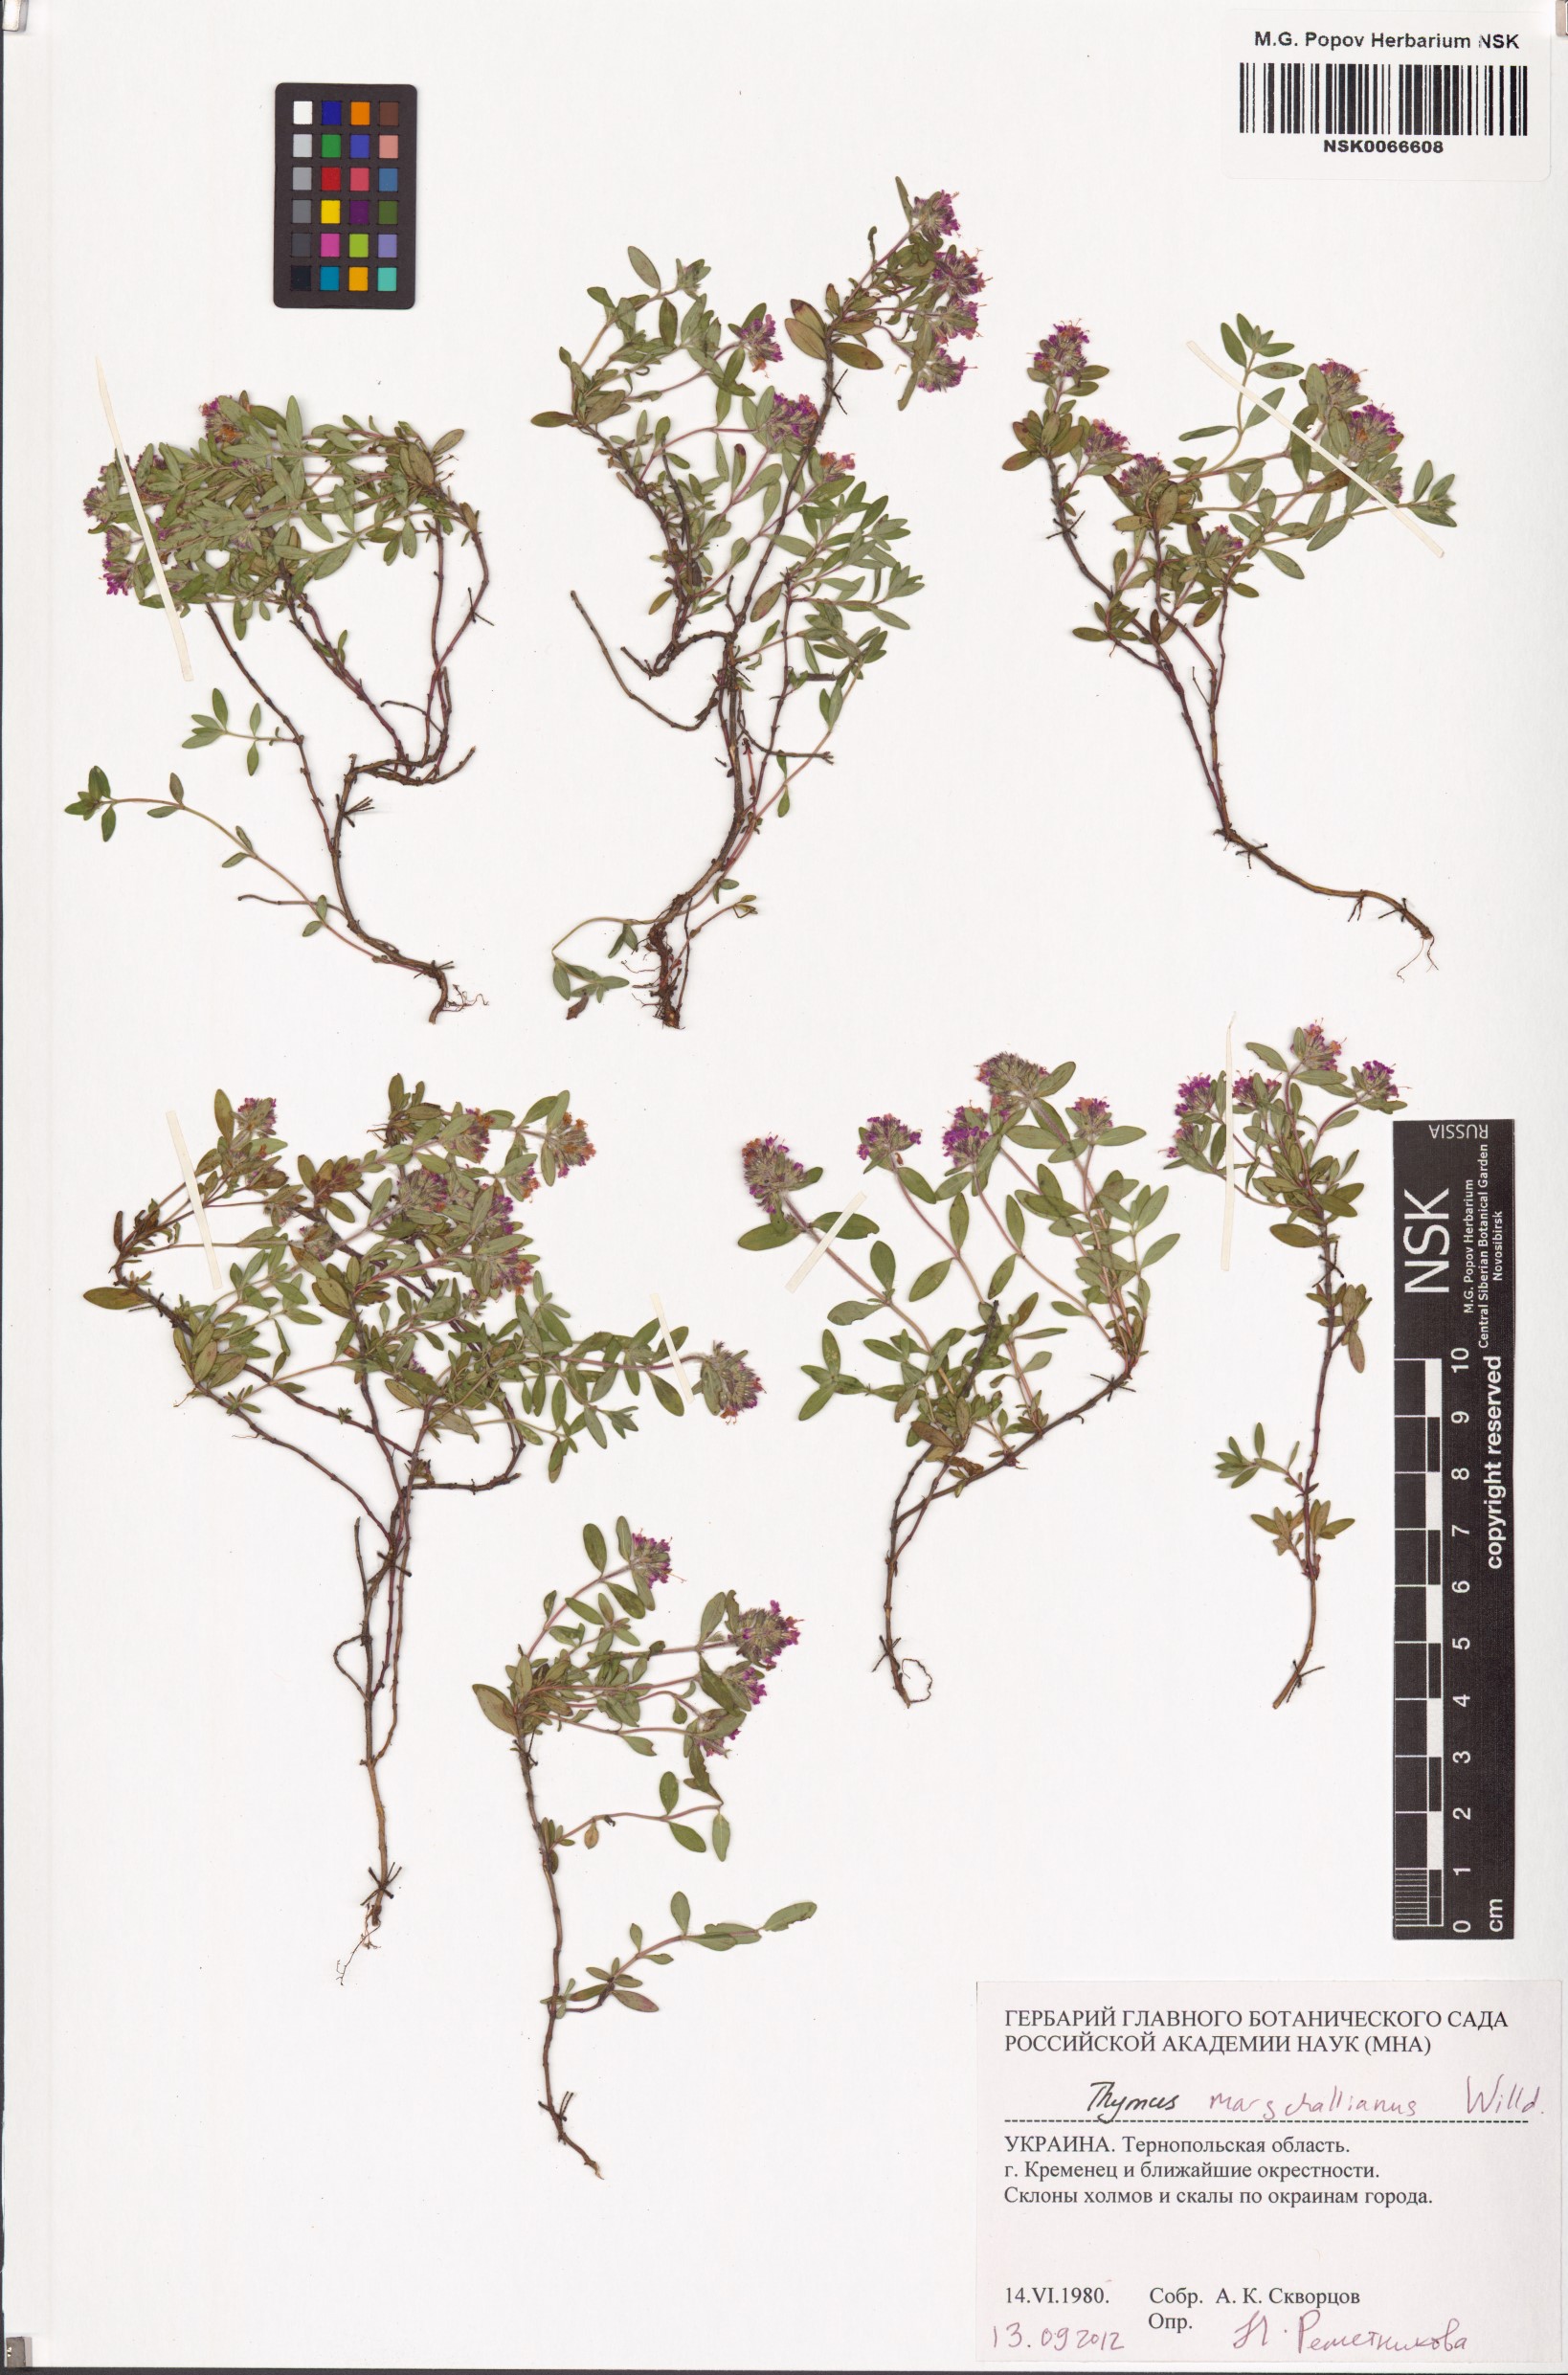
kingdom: Plantae
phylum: Tracheophyta
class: Magnoliopsida
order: Lamiales
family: Lamiaceae
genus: Thymus
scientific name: Thymus pannonicus
